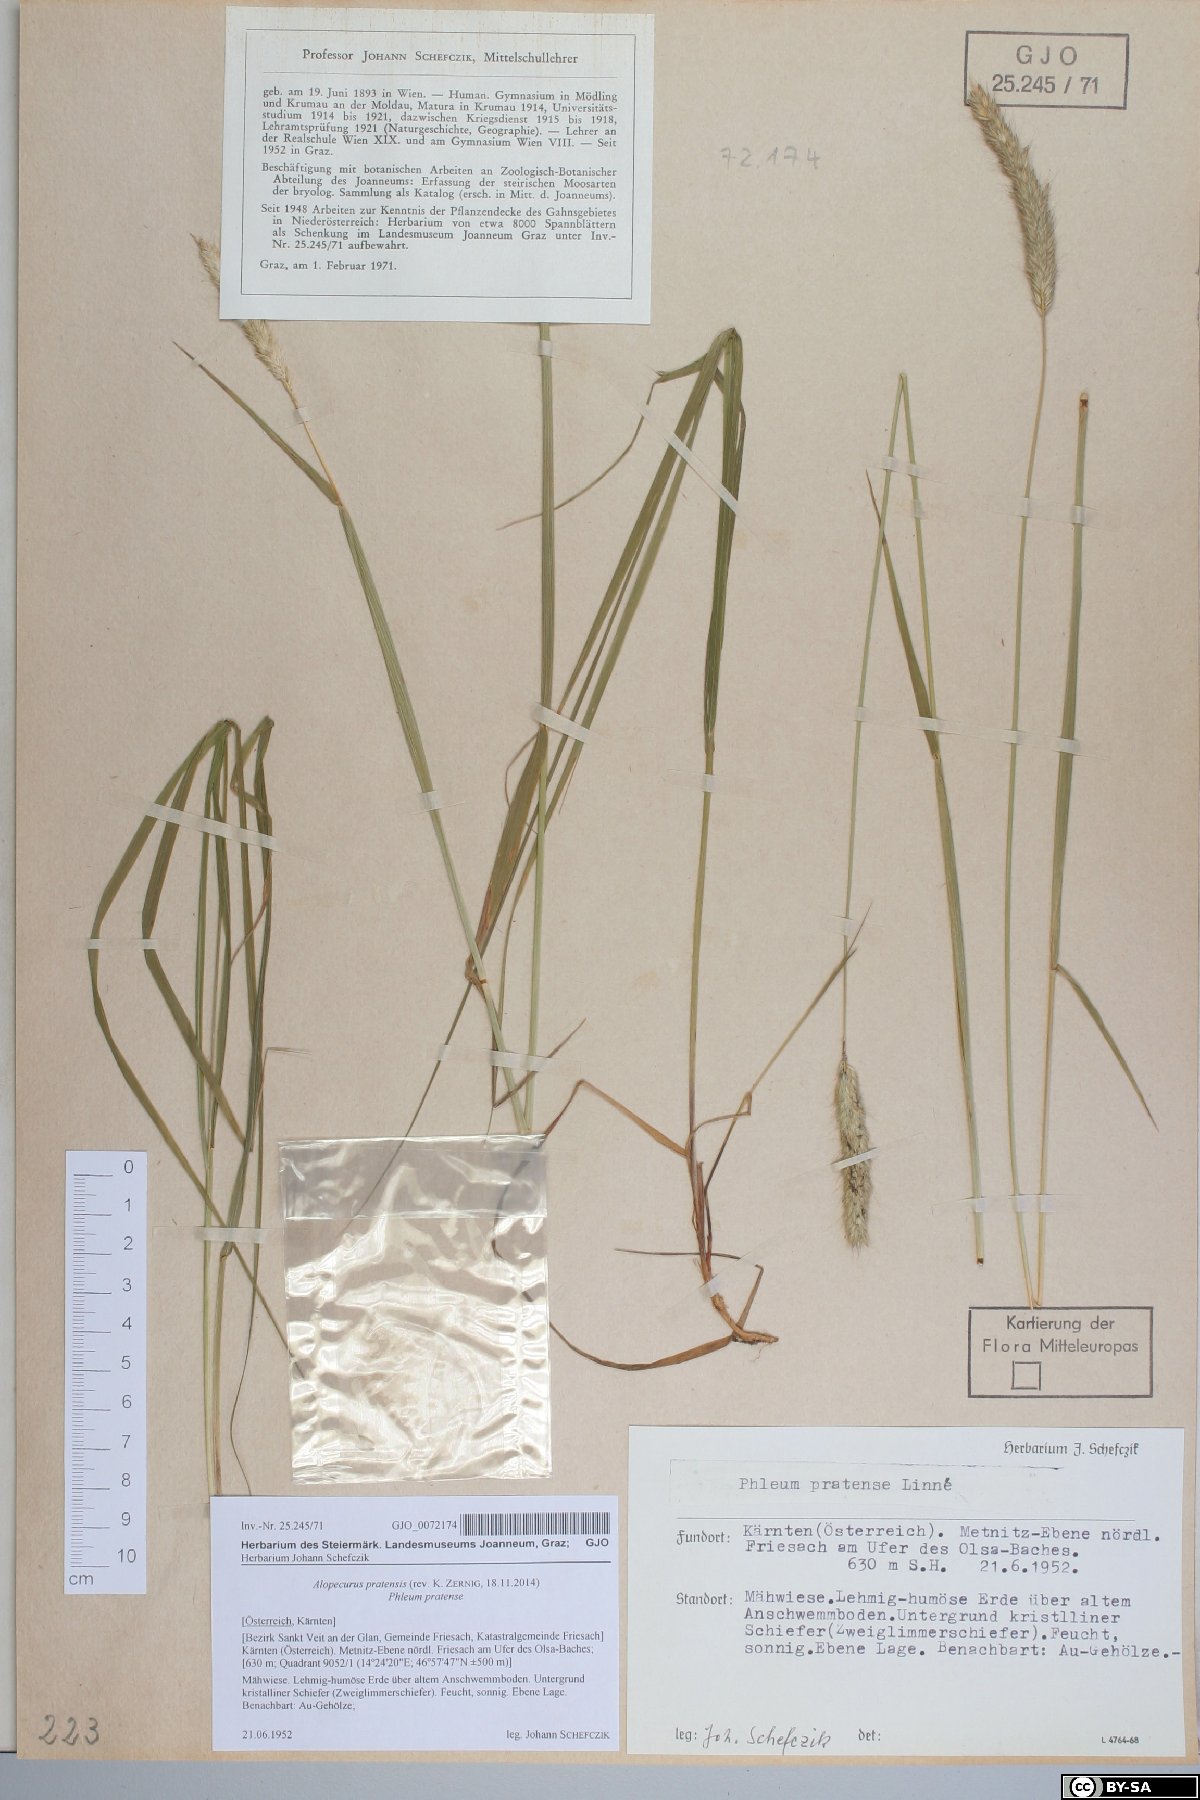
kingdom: Plantae
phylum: Tracheophyta
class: Liliopsida
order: Poales
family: Poaceae
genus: Alopecurus
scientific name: Alopecurus pratensis
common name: Meadow foxtail
